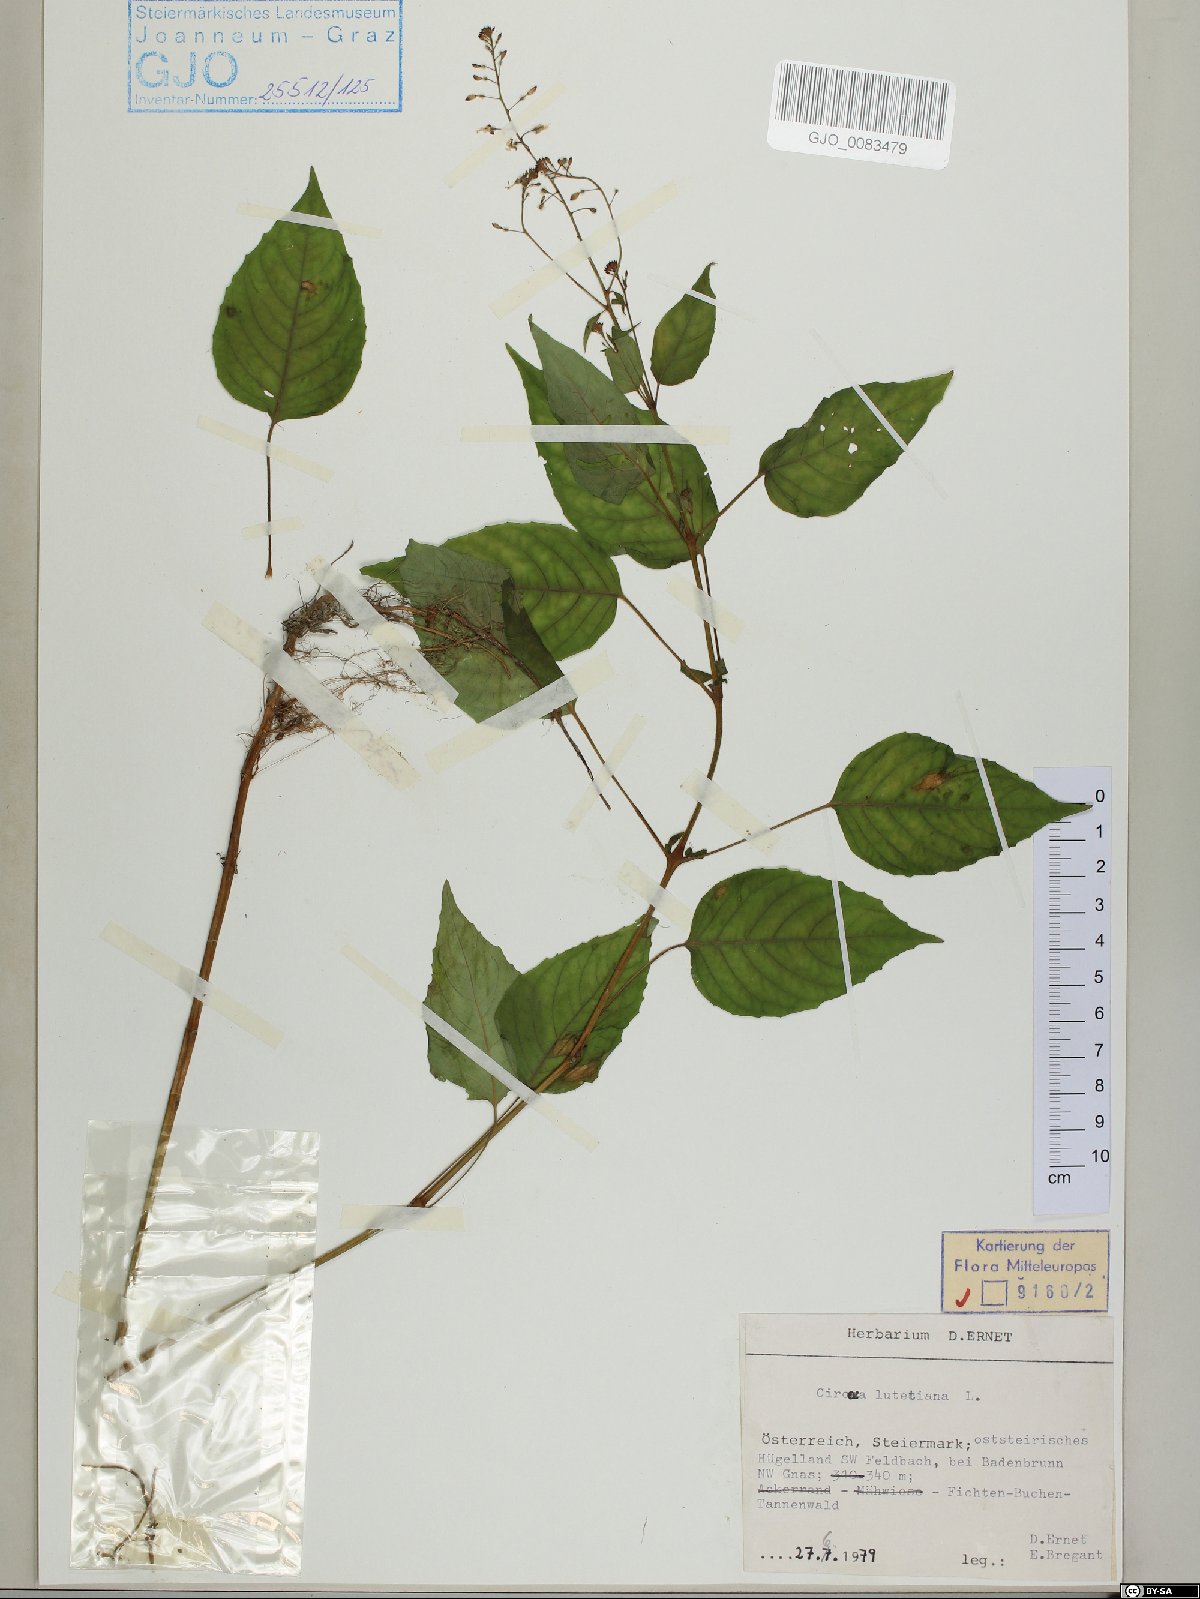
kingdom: Plantae
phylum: Tracheophyta
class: Magnoliopsida
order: Myrtales
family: Onagraceae
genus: Circaea
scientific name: Circaea lutetiana
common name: Enchanter's-nightshade
